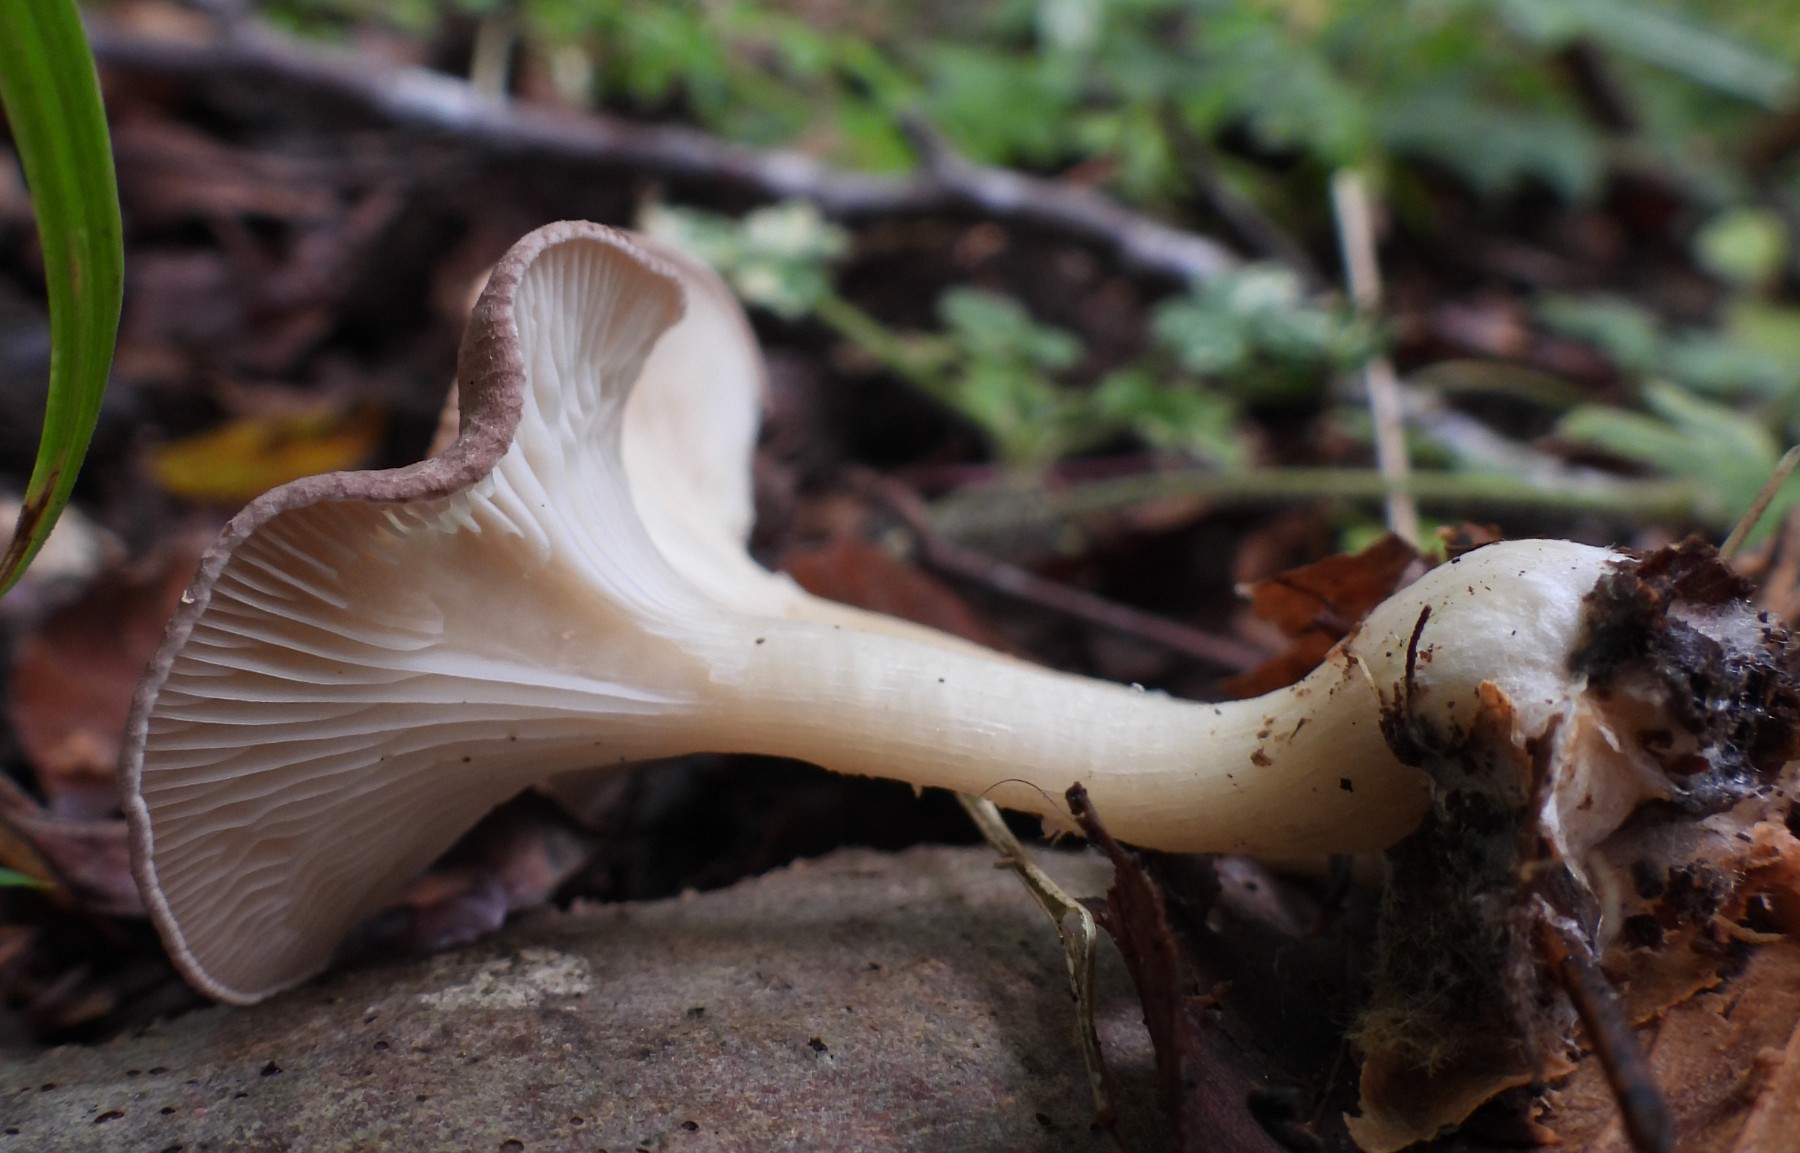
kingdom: Fungi
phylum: Basidiomycota
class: Agaricomycetes
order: Agaricales
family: Tricholomataceae
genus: Infundibulicybe
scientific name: Infundibulicybe gibba
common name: almindelig tragthat
